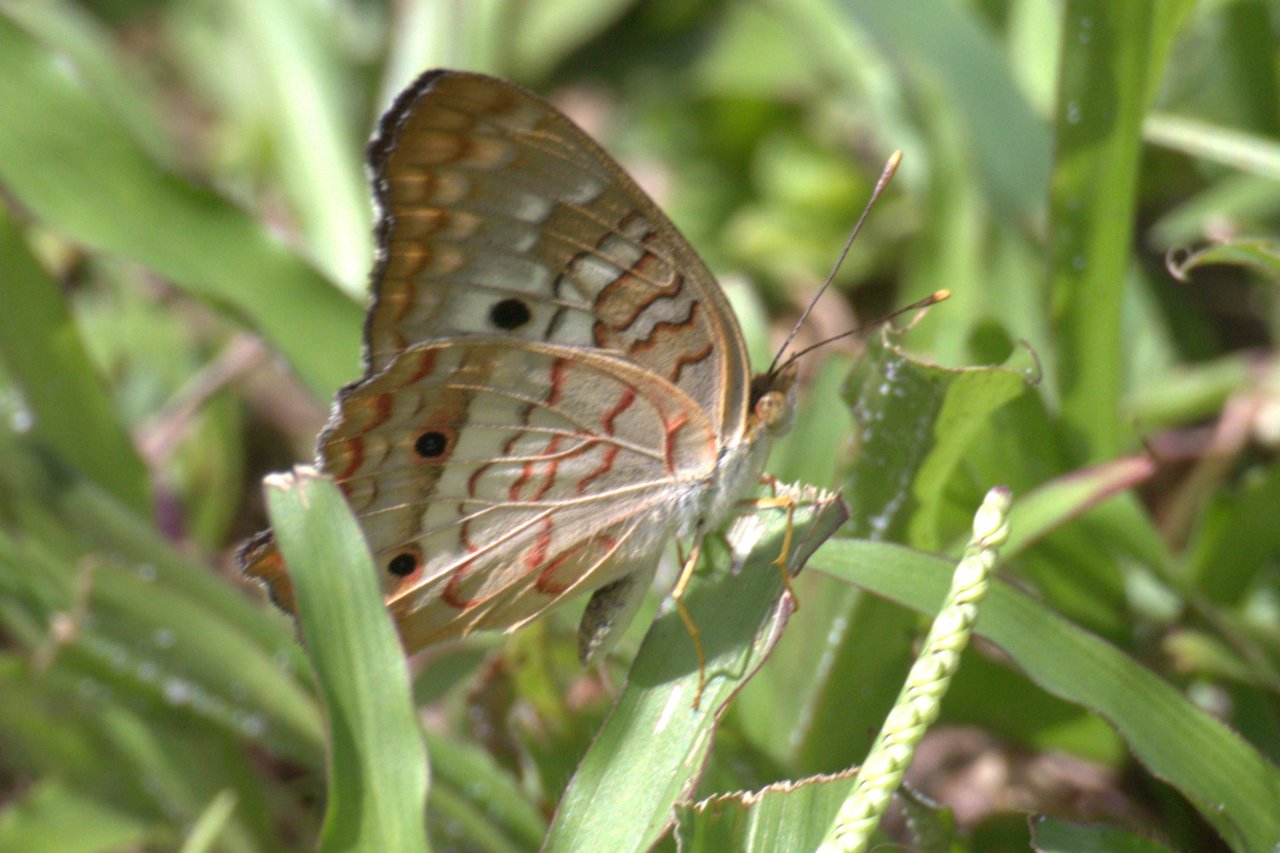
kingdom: Animalia
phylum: Arthropoda
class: Insecta
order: Lepidoptera
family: Nymphalidae
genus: Anartia
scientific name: Anartia jatrophae
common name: White Peacock
